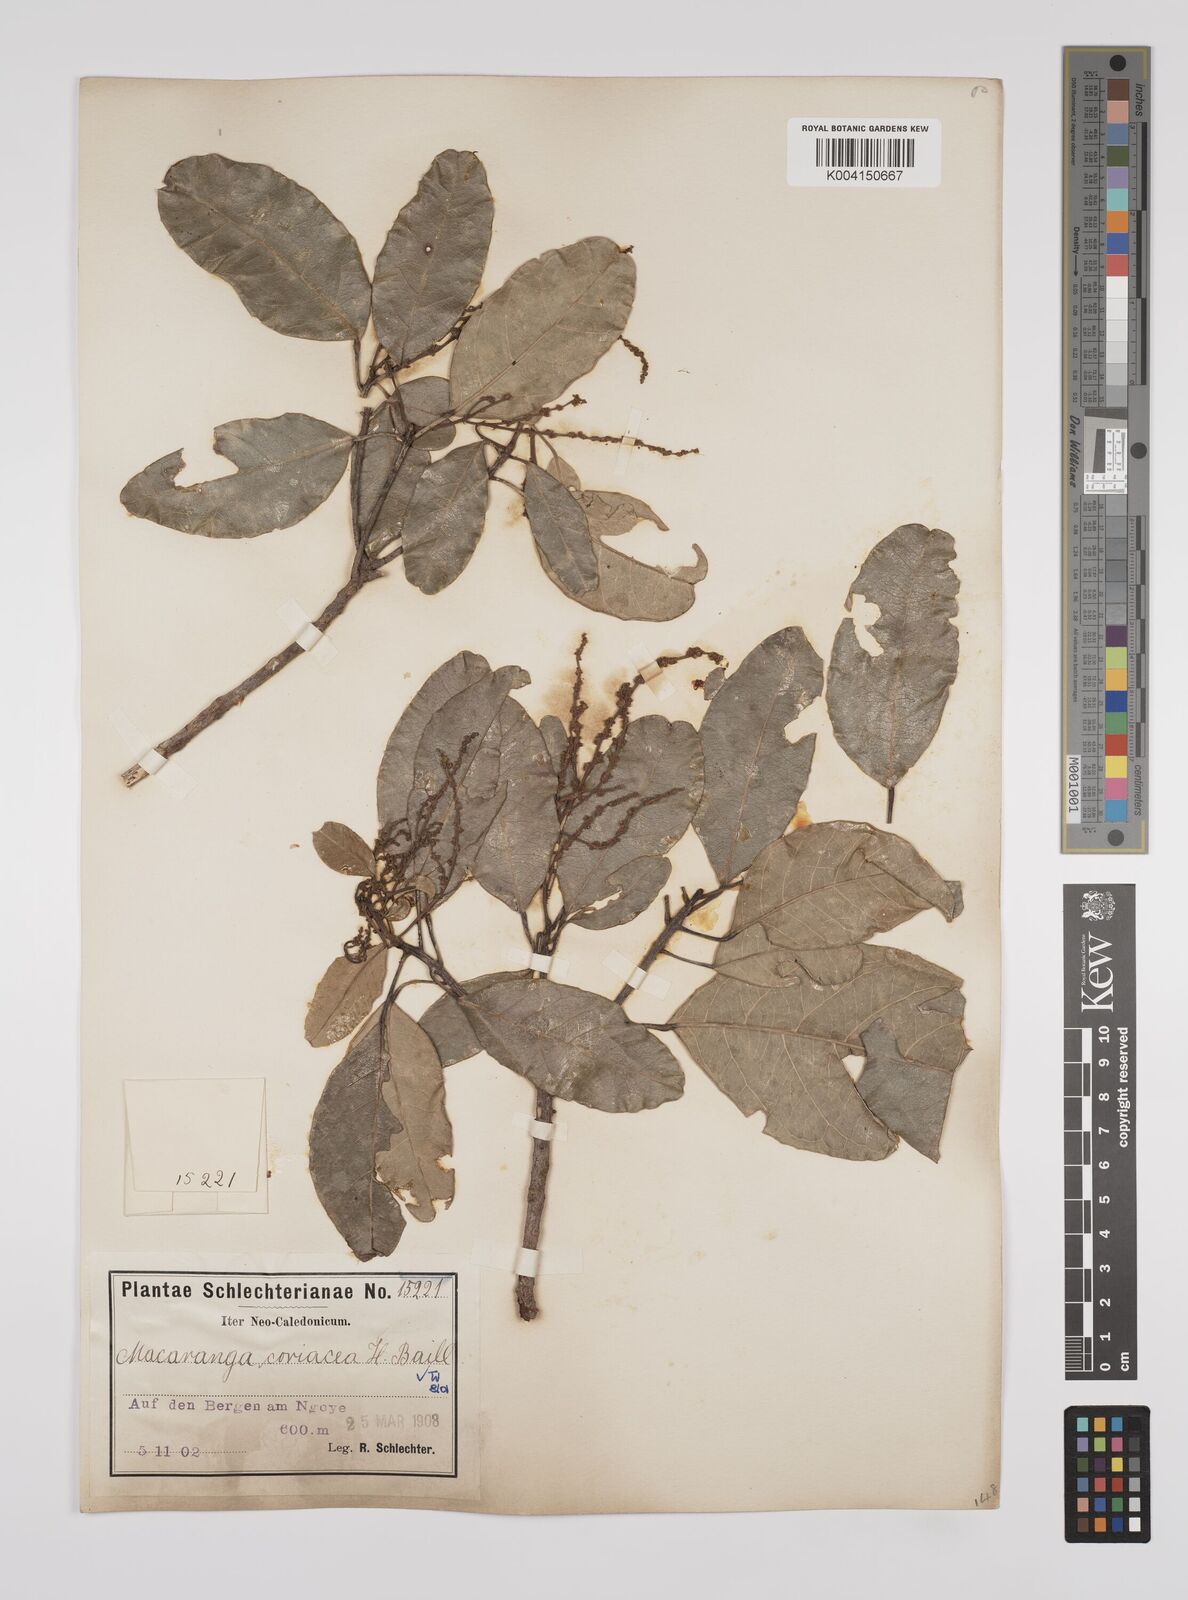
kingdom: Plantae
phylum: Tracheophyta
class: Magnoliopsida
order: Malpighiales
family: Euphorbiaceae
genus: Macaranga
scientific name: Macaranga coriacea
